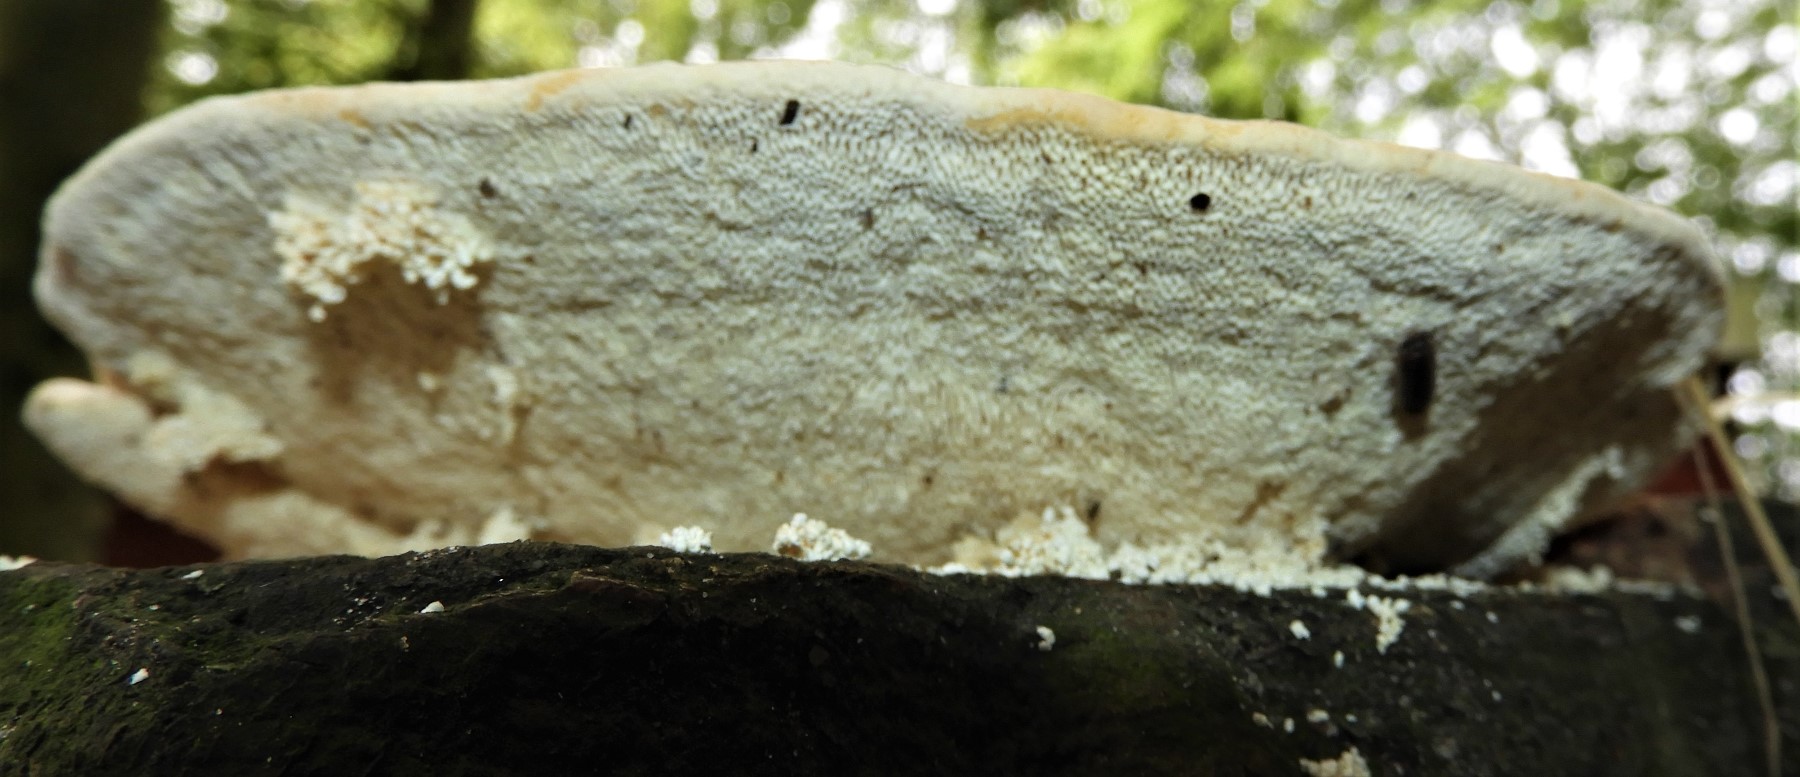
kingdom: Fungi
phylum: Basidiomycota
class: Agaricomycetes
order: Polyporales
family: Polyporaceae
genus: Trametes
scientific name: Trametes gibbosa
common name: puklet læderporesvamp
